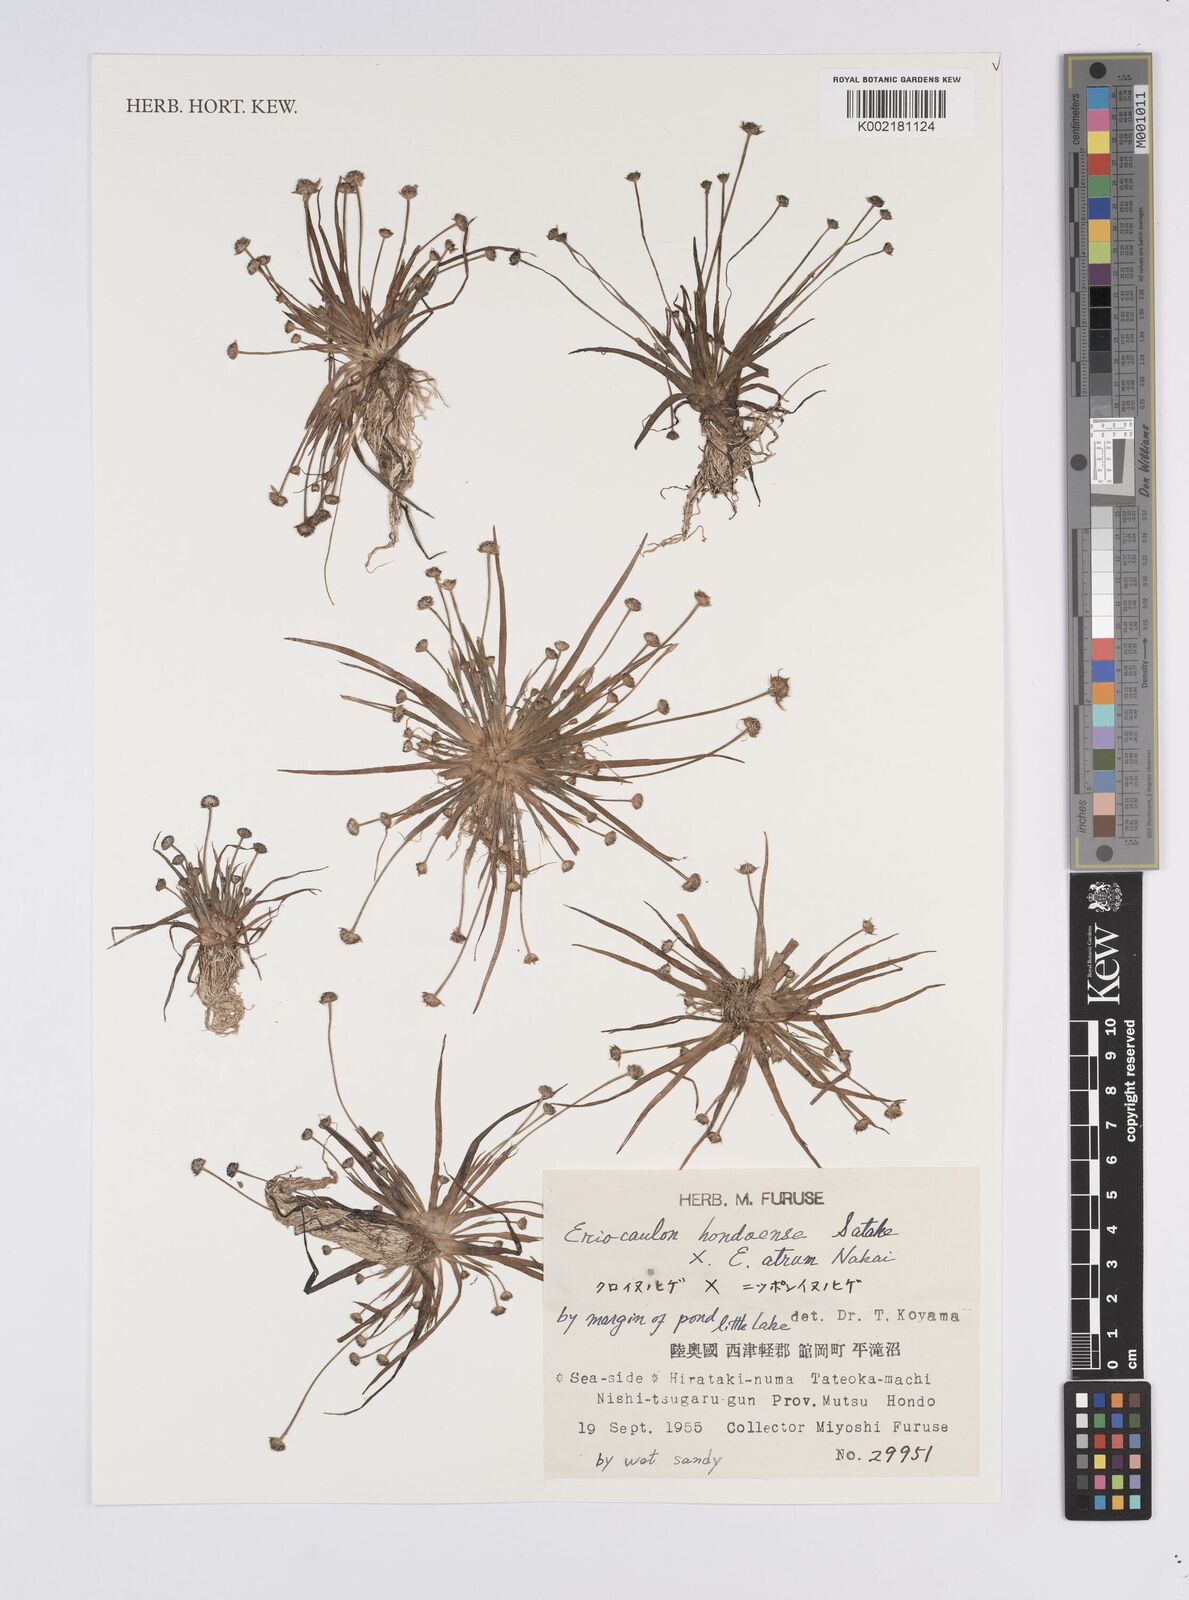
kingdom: Plantae
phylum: Tracheophyta
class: Liliopsida
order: Poales
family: Eriocaulaceae
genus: Eriocaulon
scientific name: Eriocaulon atrum
